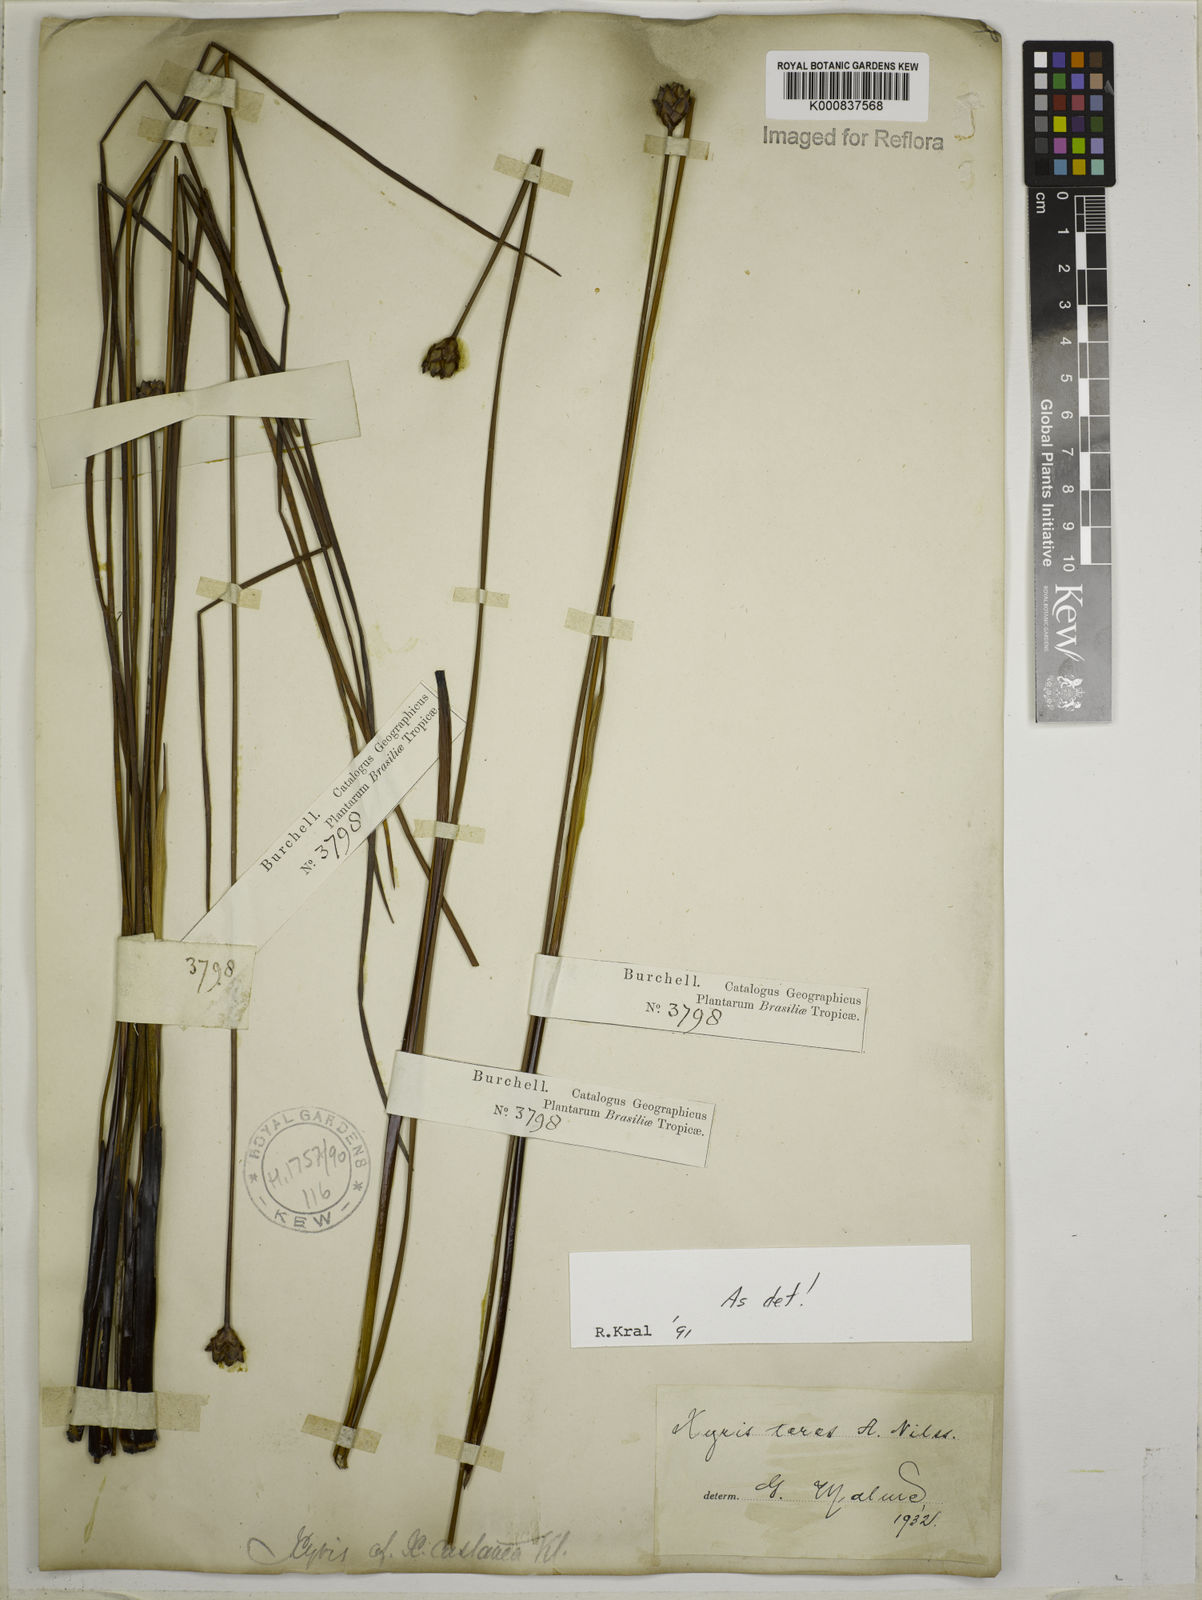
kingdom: Plantae
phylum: Tracheophyta
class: Liliopsida
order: Poales
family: Xyridaceae
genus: Xyris
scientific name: Xyris teres
